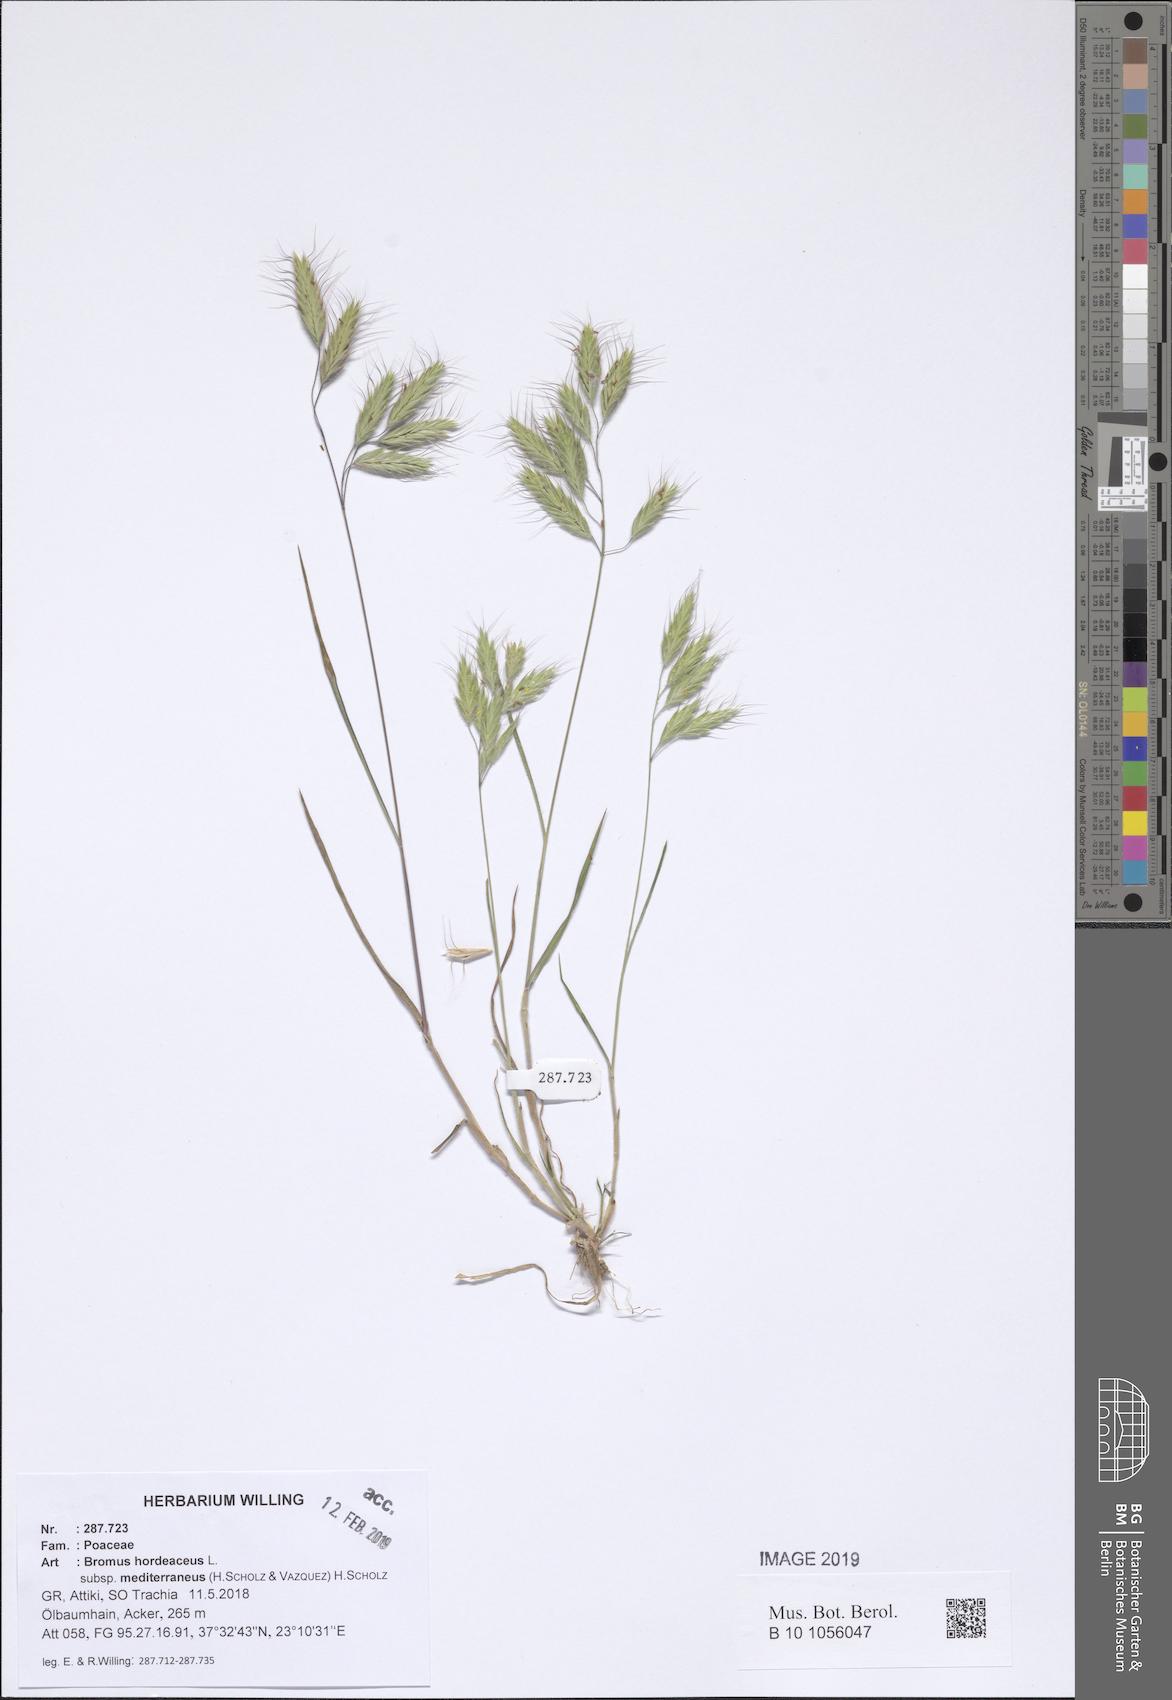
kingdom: Plantae
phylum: Tracheophyta
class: Liliopsida
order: Poales
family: Poaceae
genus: Bromus
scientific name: Bromus hordeaceus
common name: Soft brome
